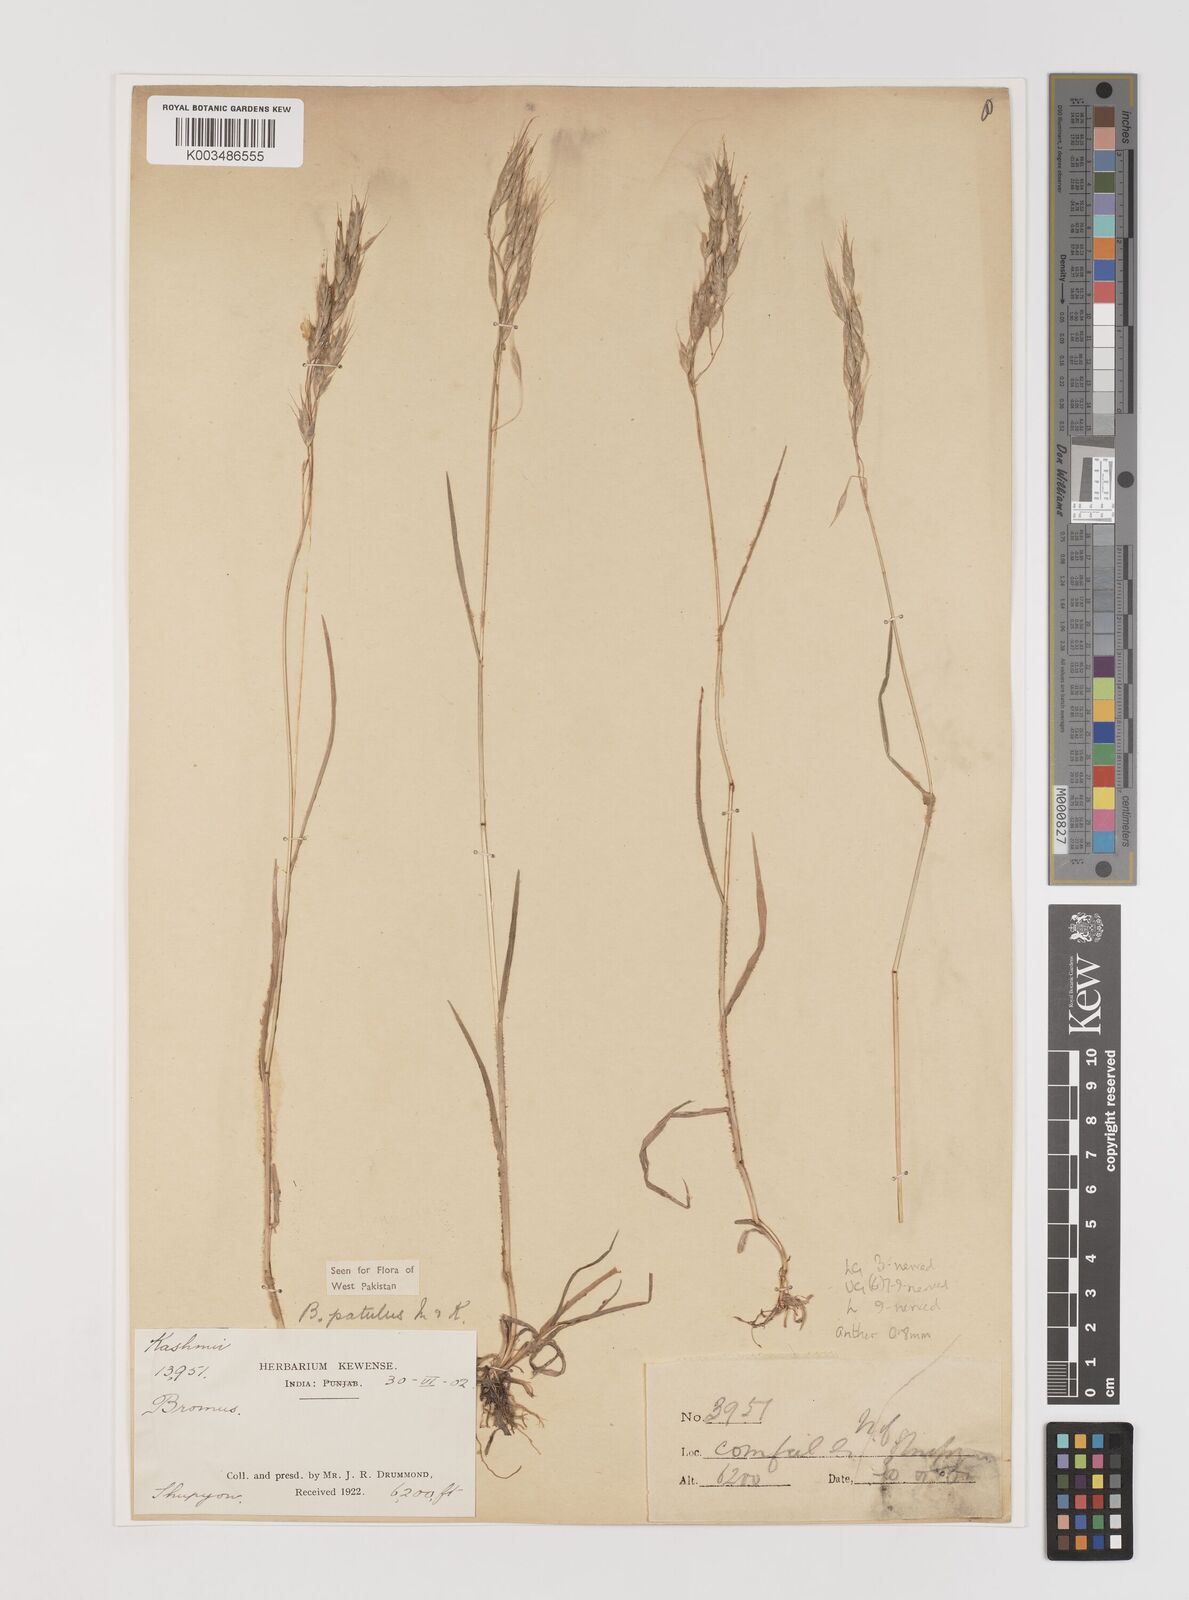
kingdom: Plantae
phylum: Tracheophyta
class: Liliopsida
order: Poales
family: Poaceae
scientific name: Poaceae
